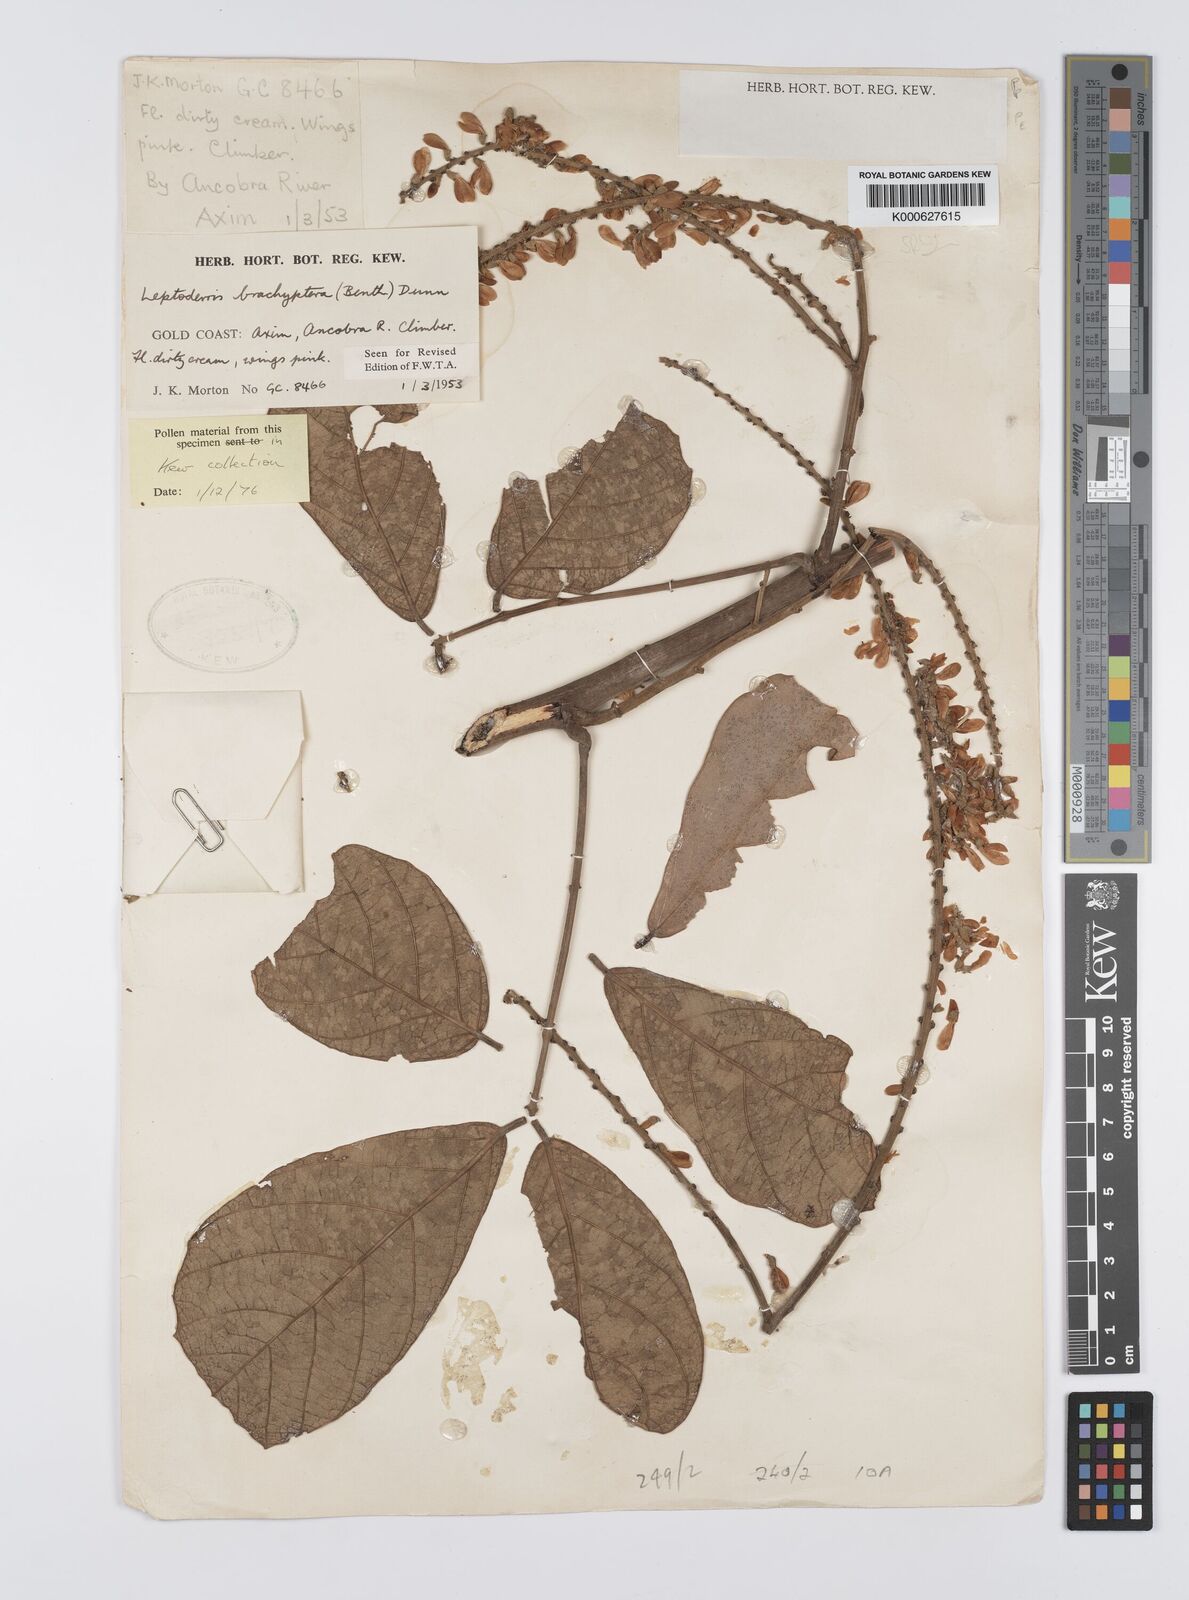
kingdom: Plantae
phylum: Tracheophyta
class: Magnoliopsida
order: Fabales
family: Fabaceae
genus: Leptoderris
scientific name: Leptoderris brachyptera
